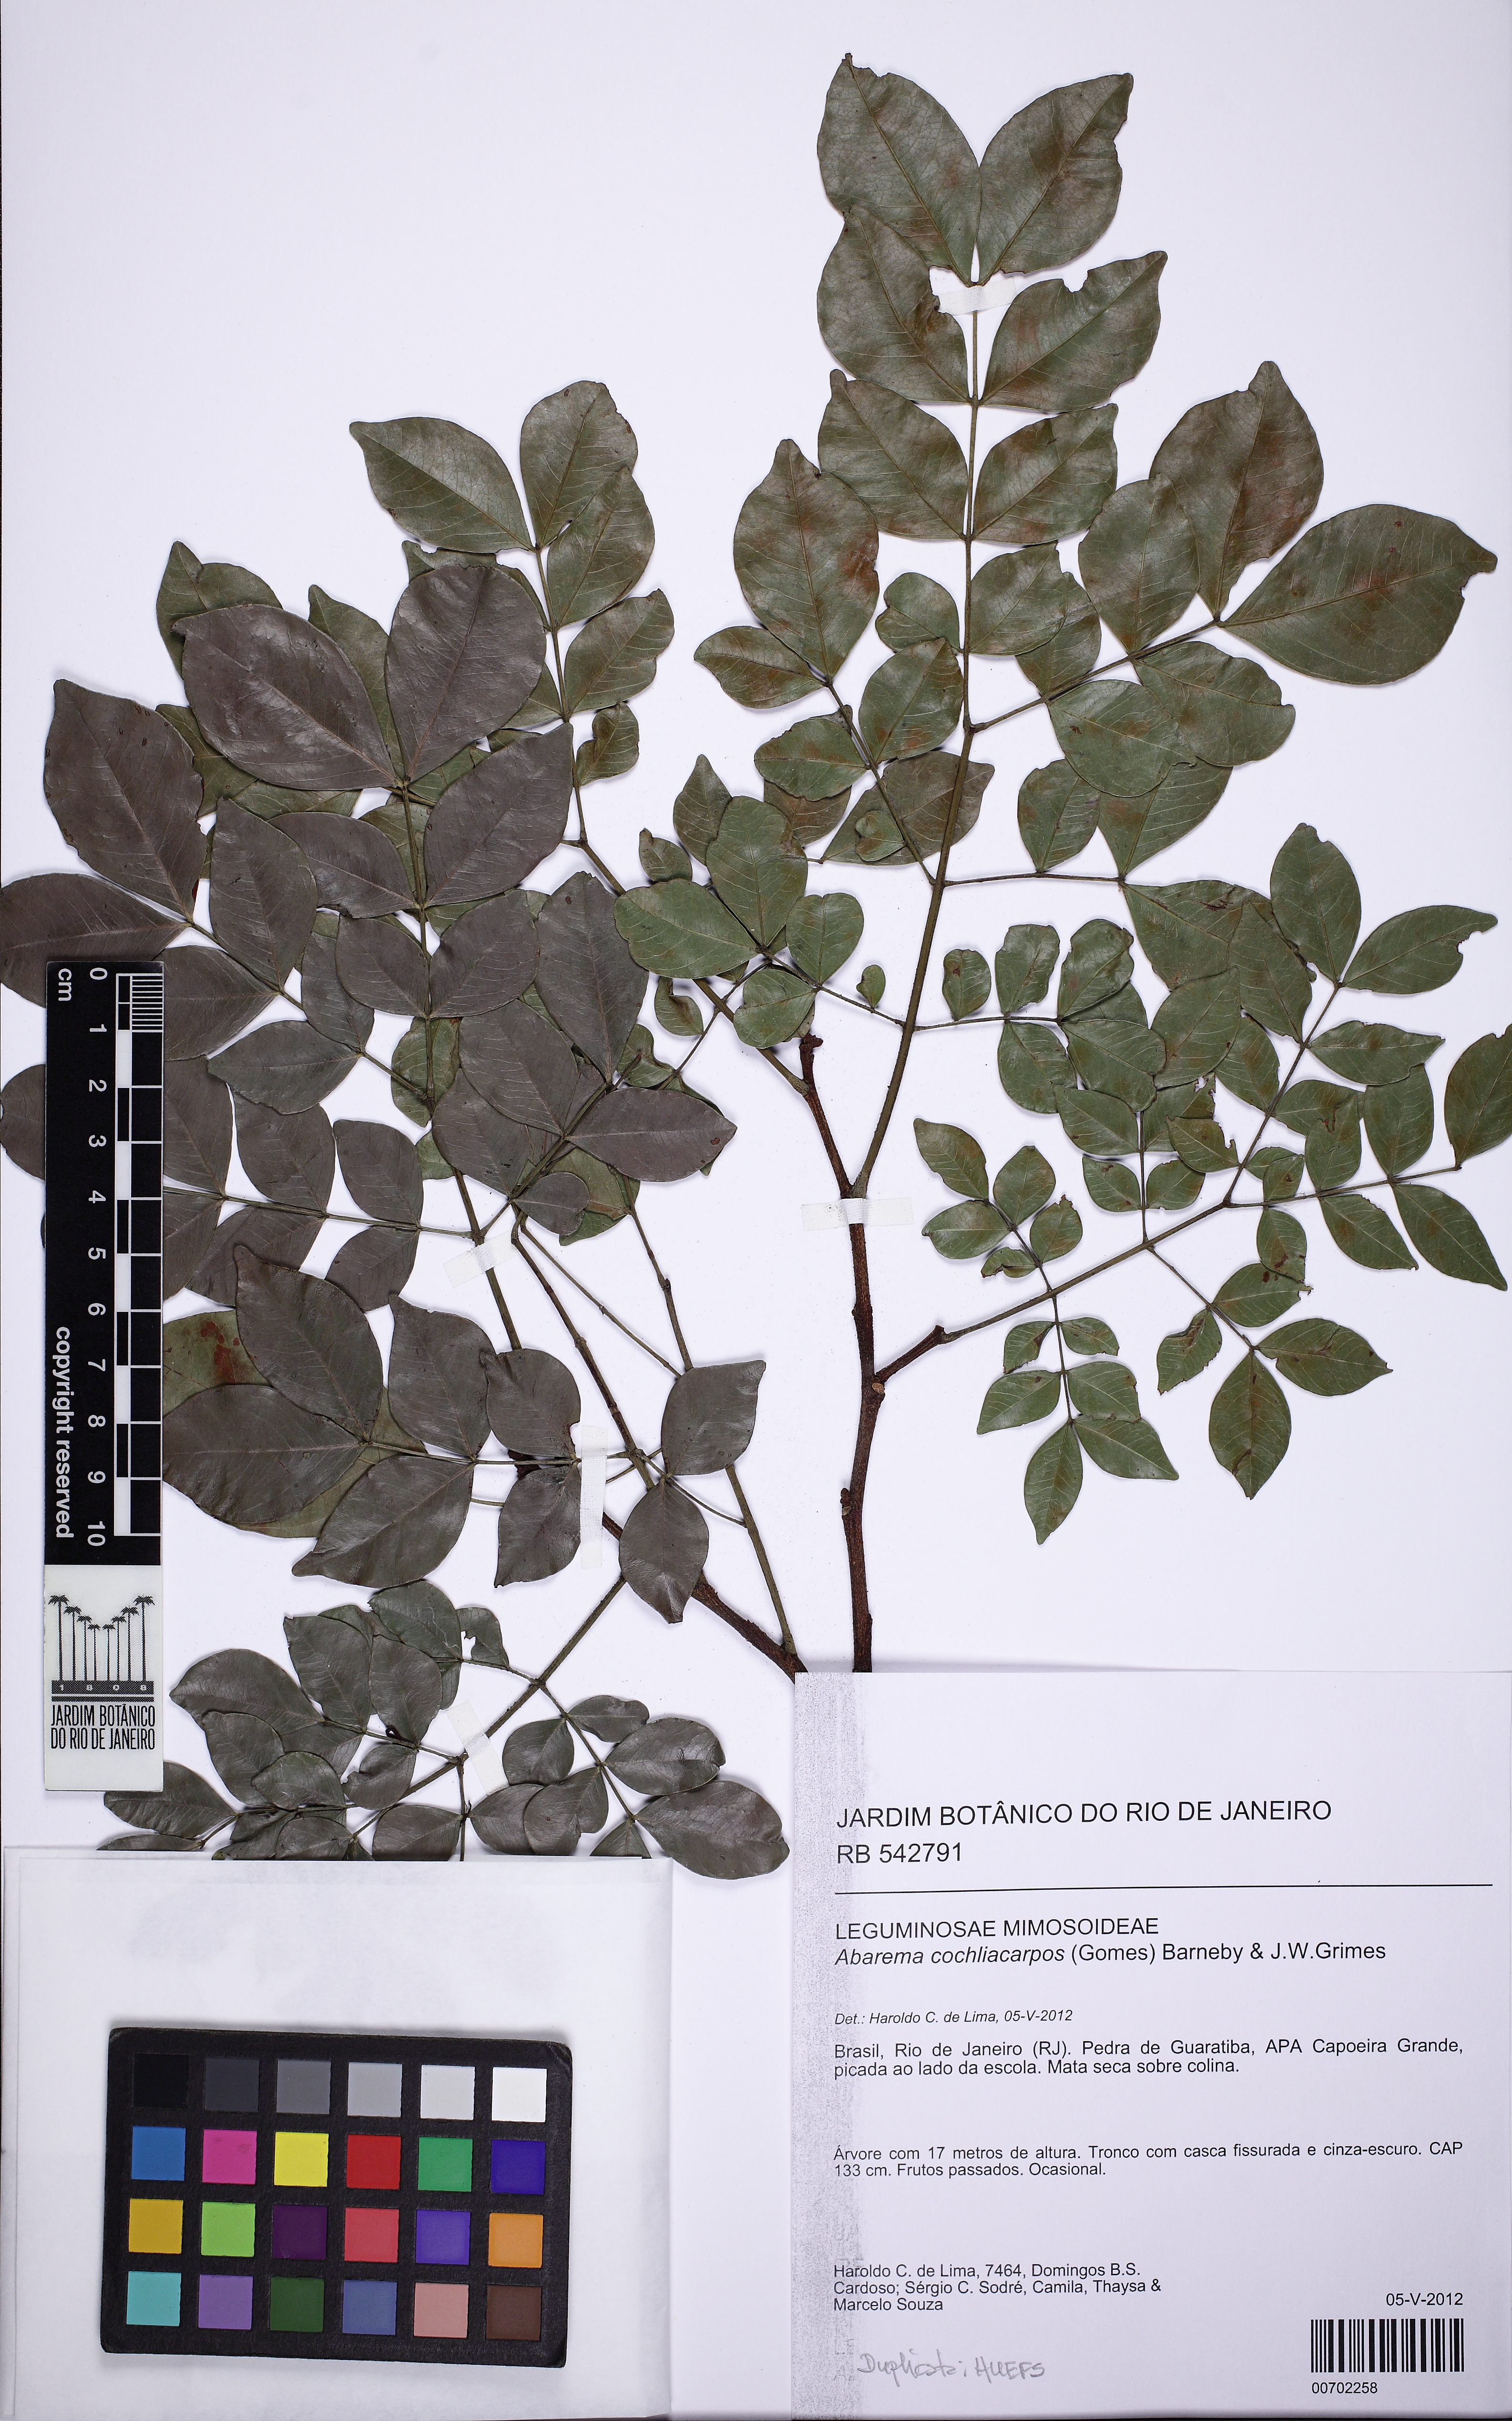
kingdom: Plantae
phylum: Tracheophyta
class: Magnoliopsida
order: Fabales
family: Fabaceae
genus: Abarema
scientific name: Abarema cochliacarpos
